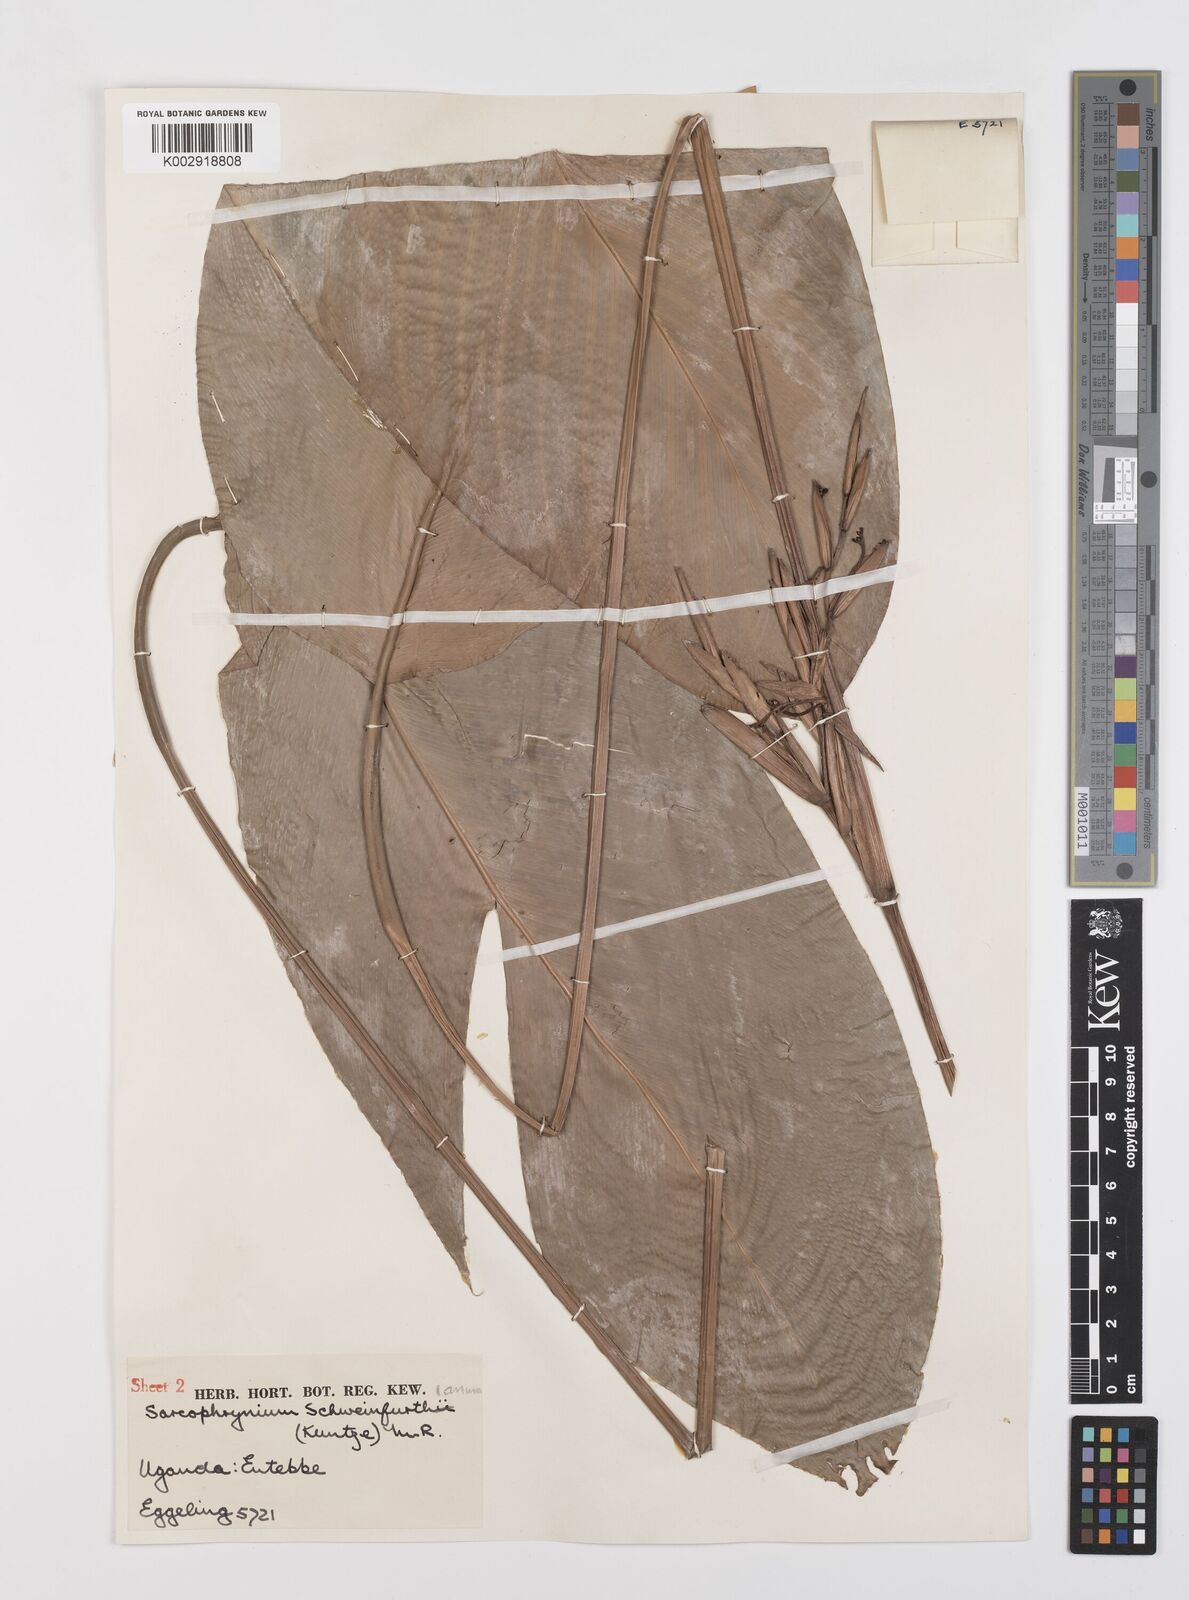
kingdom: Plantae
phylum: Tracheophyta
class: Liliopsida
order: Zingiberales
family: Marantaceae
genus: Sarcophrynium
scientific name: Sarcophrynium schweinfurthianum
